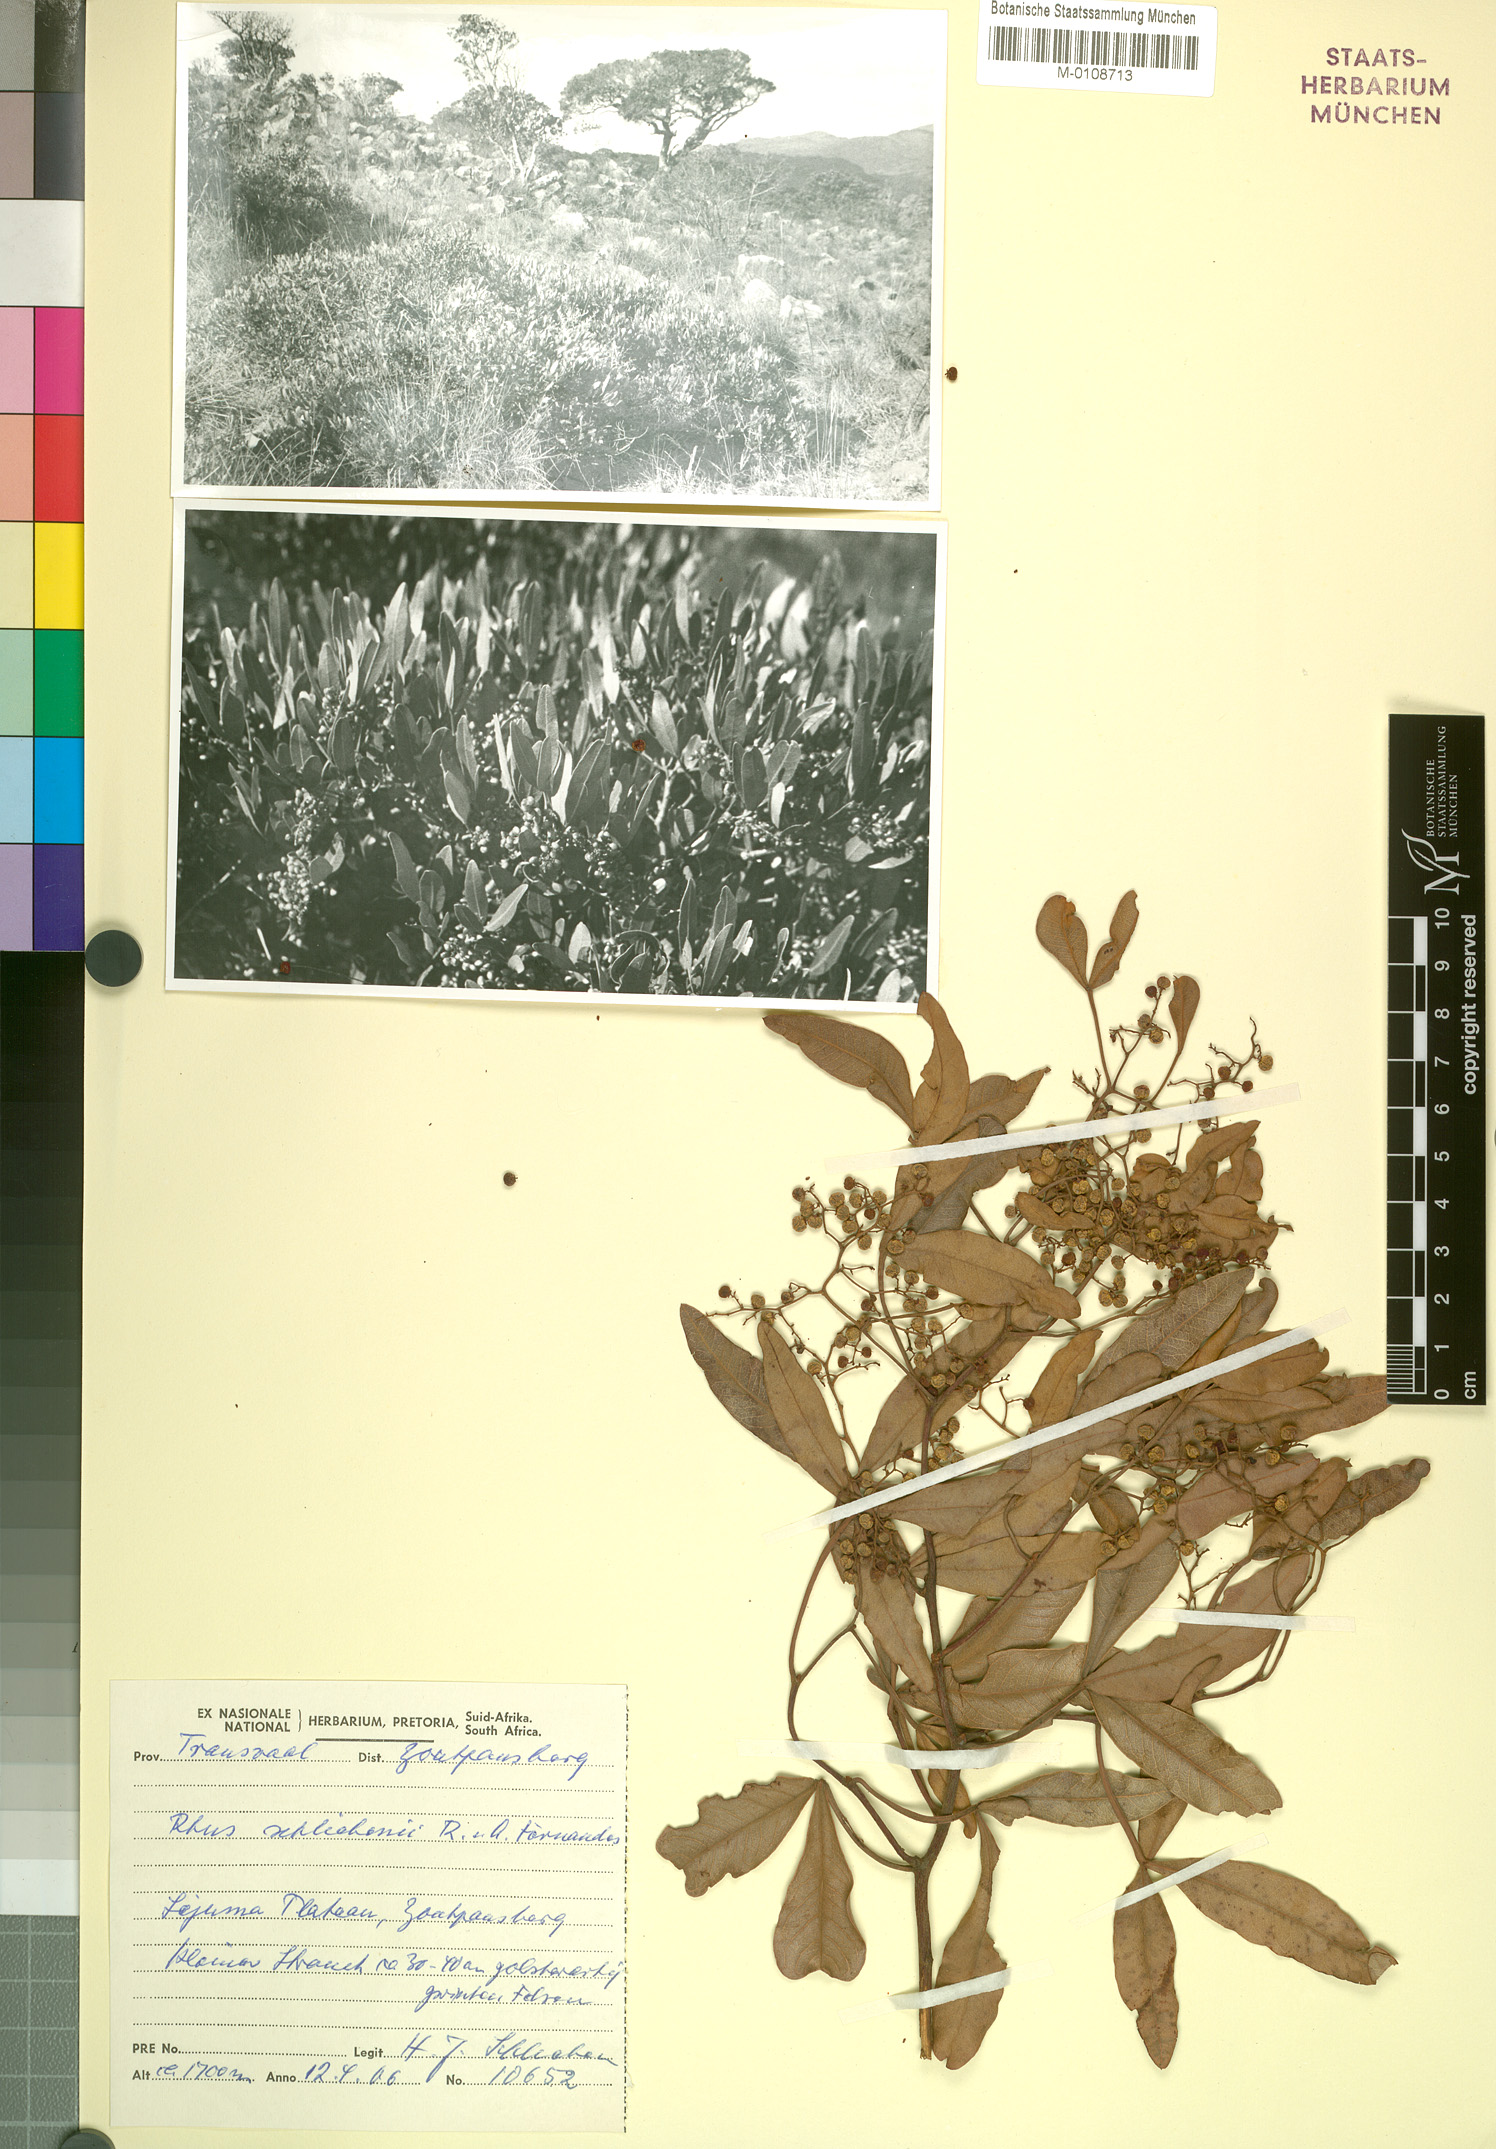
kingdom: Plantae
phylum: Tracheophyta
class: Magnoliopsida
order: Sapindales
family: Anacardiaceae
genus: Searsia
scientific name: Searsia magalismontana
